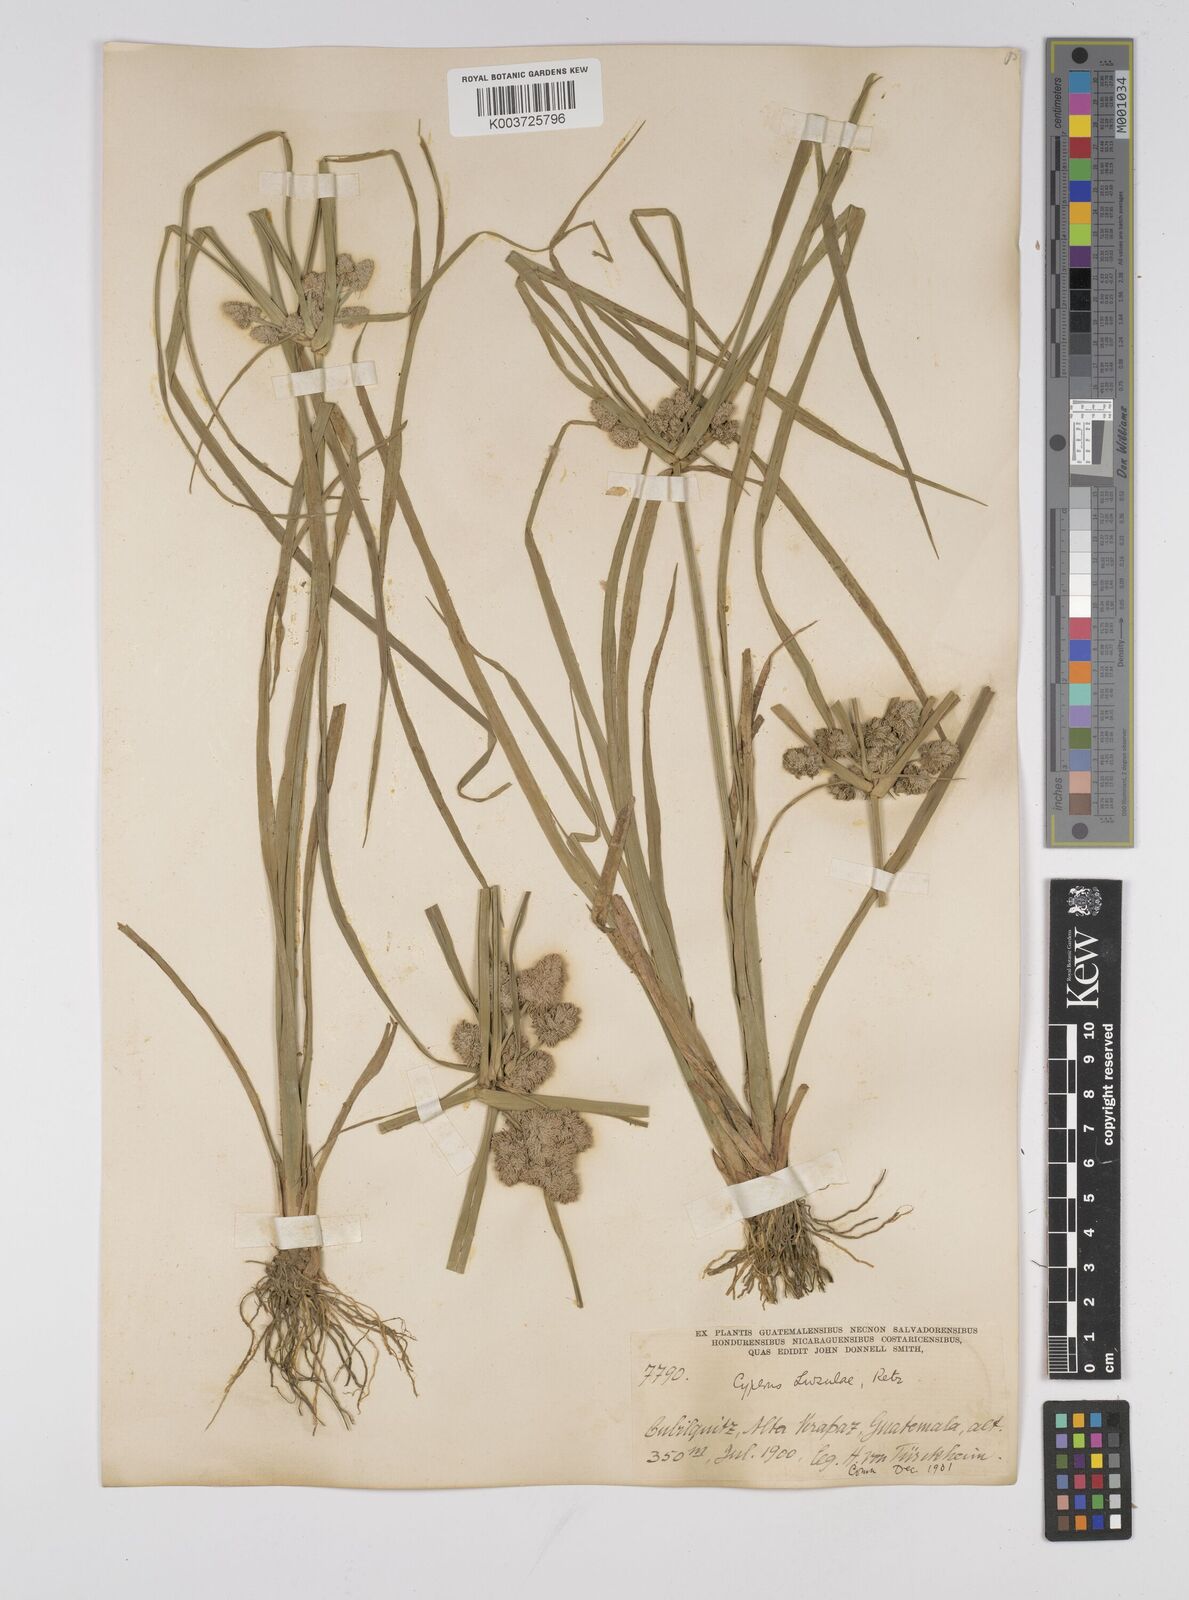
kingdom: Plantae
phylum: Tracheophyta
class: Liliopsida
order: Poales
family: Cyperaceae
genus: Cyperus
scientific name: Cyperus luzulae
